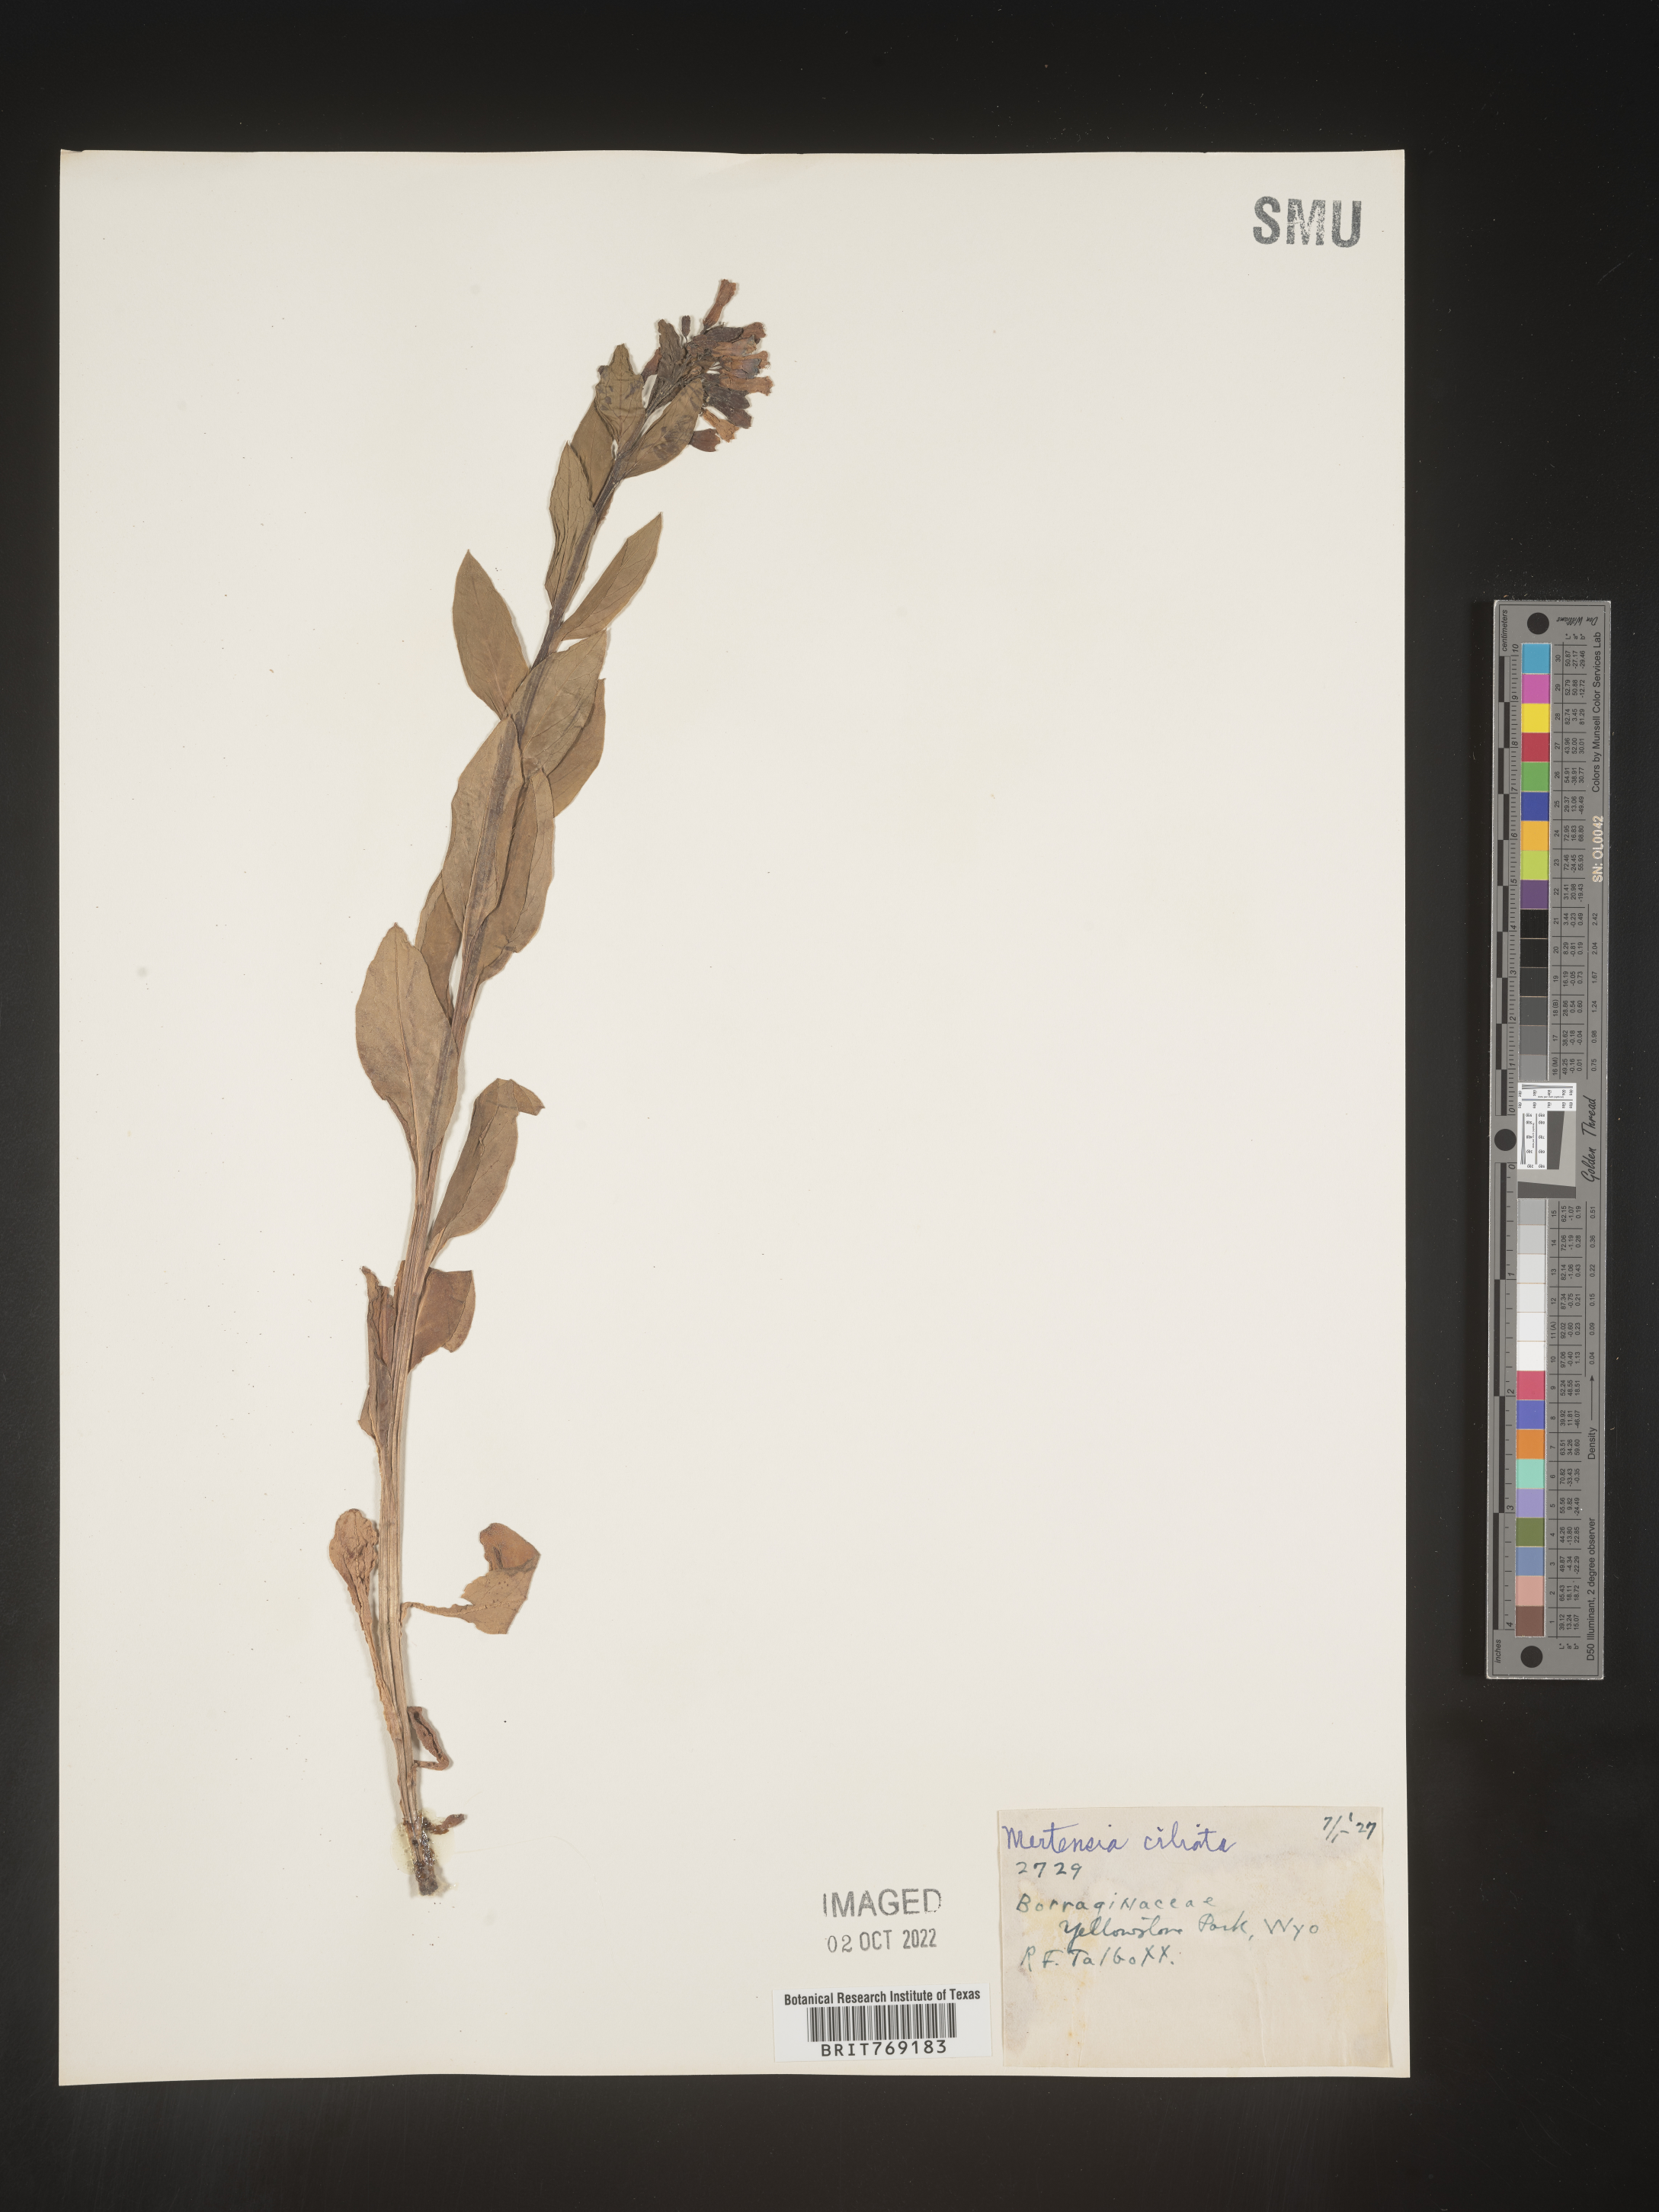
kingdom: Plantae
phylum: Tracheophyta
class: Magnoliopsida
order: Boraginales
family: Boraginaceae
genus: Mertensia
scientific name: Mertensia
